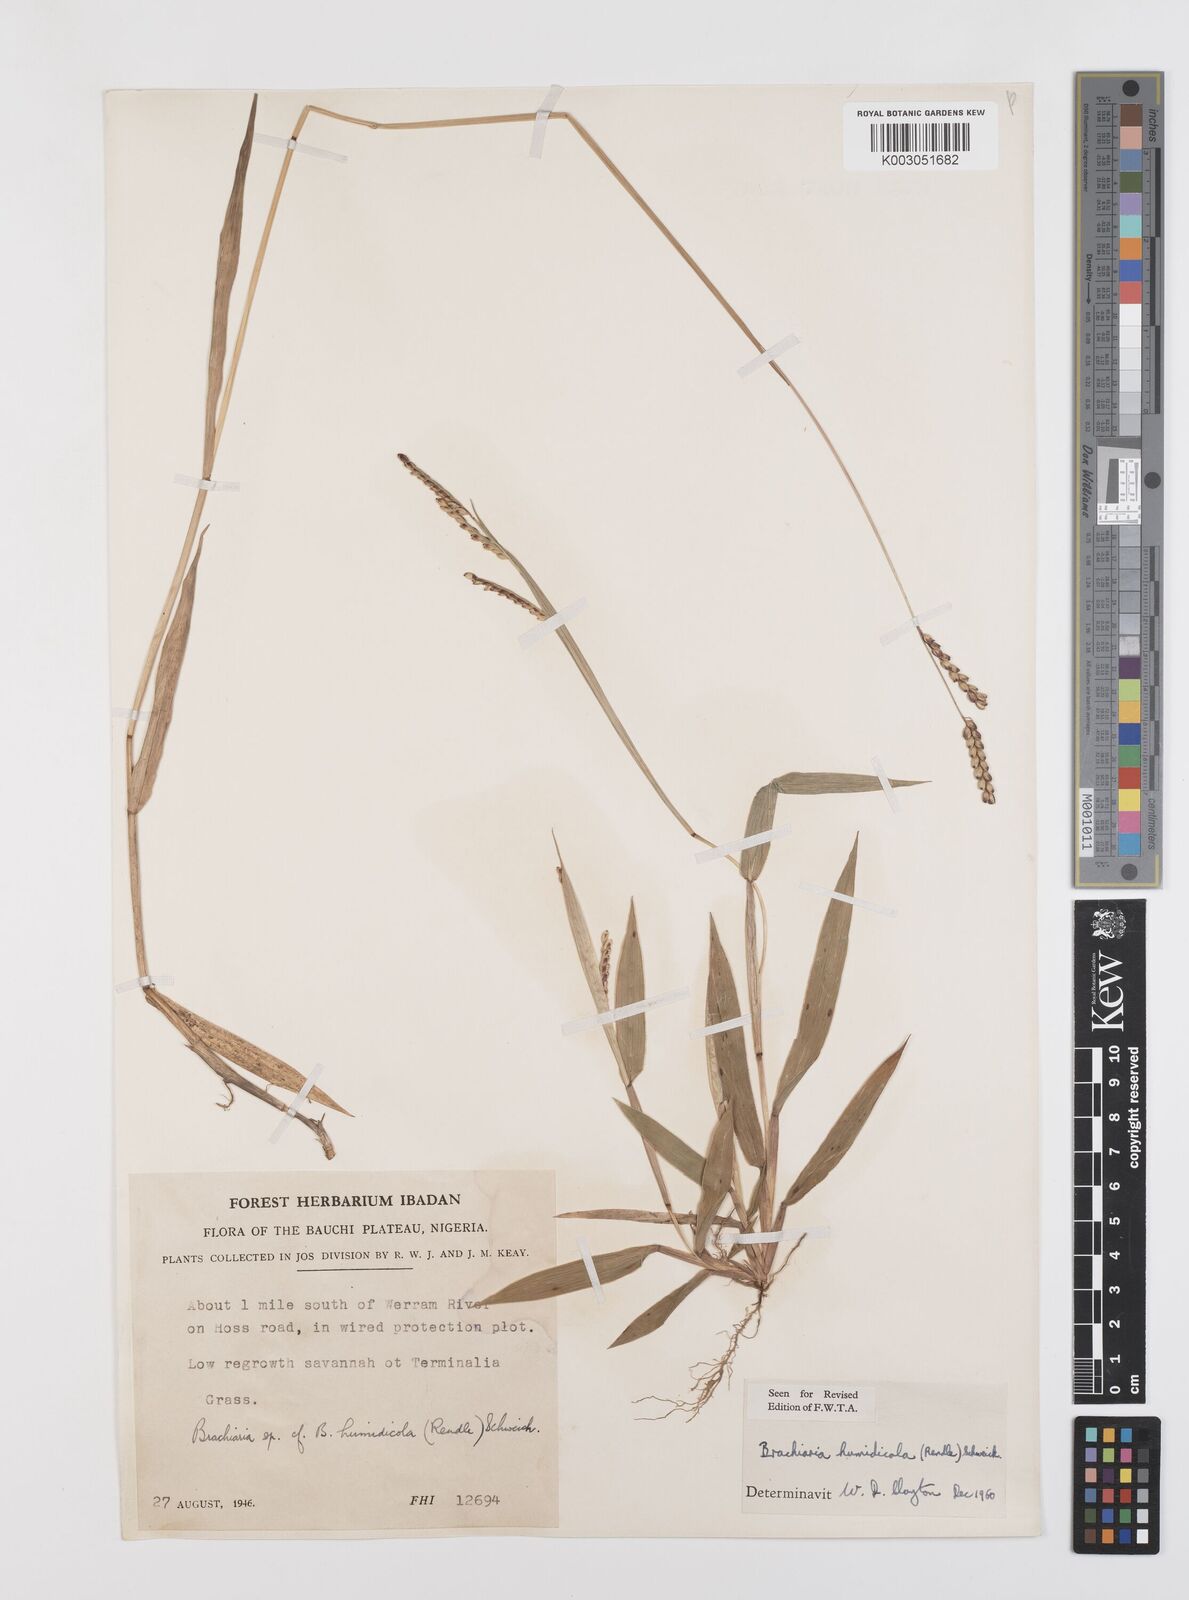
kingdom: Plantae
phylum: Tracheophyta
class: Liliopsida
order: Poales
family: Poaceae
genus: Urochloa
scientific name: Urochloa dictyoneura
